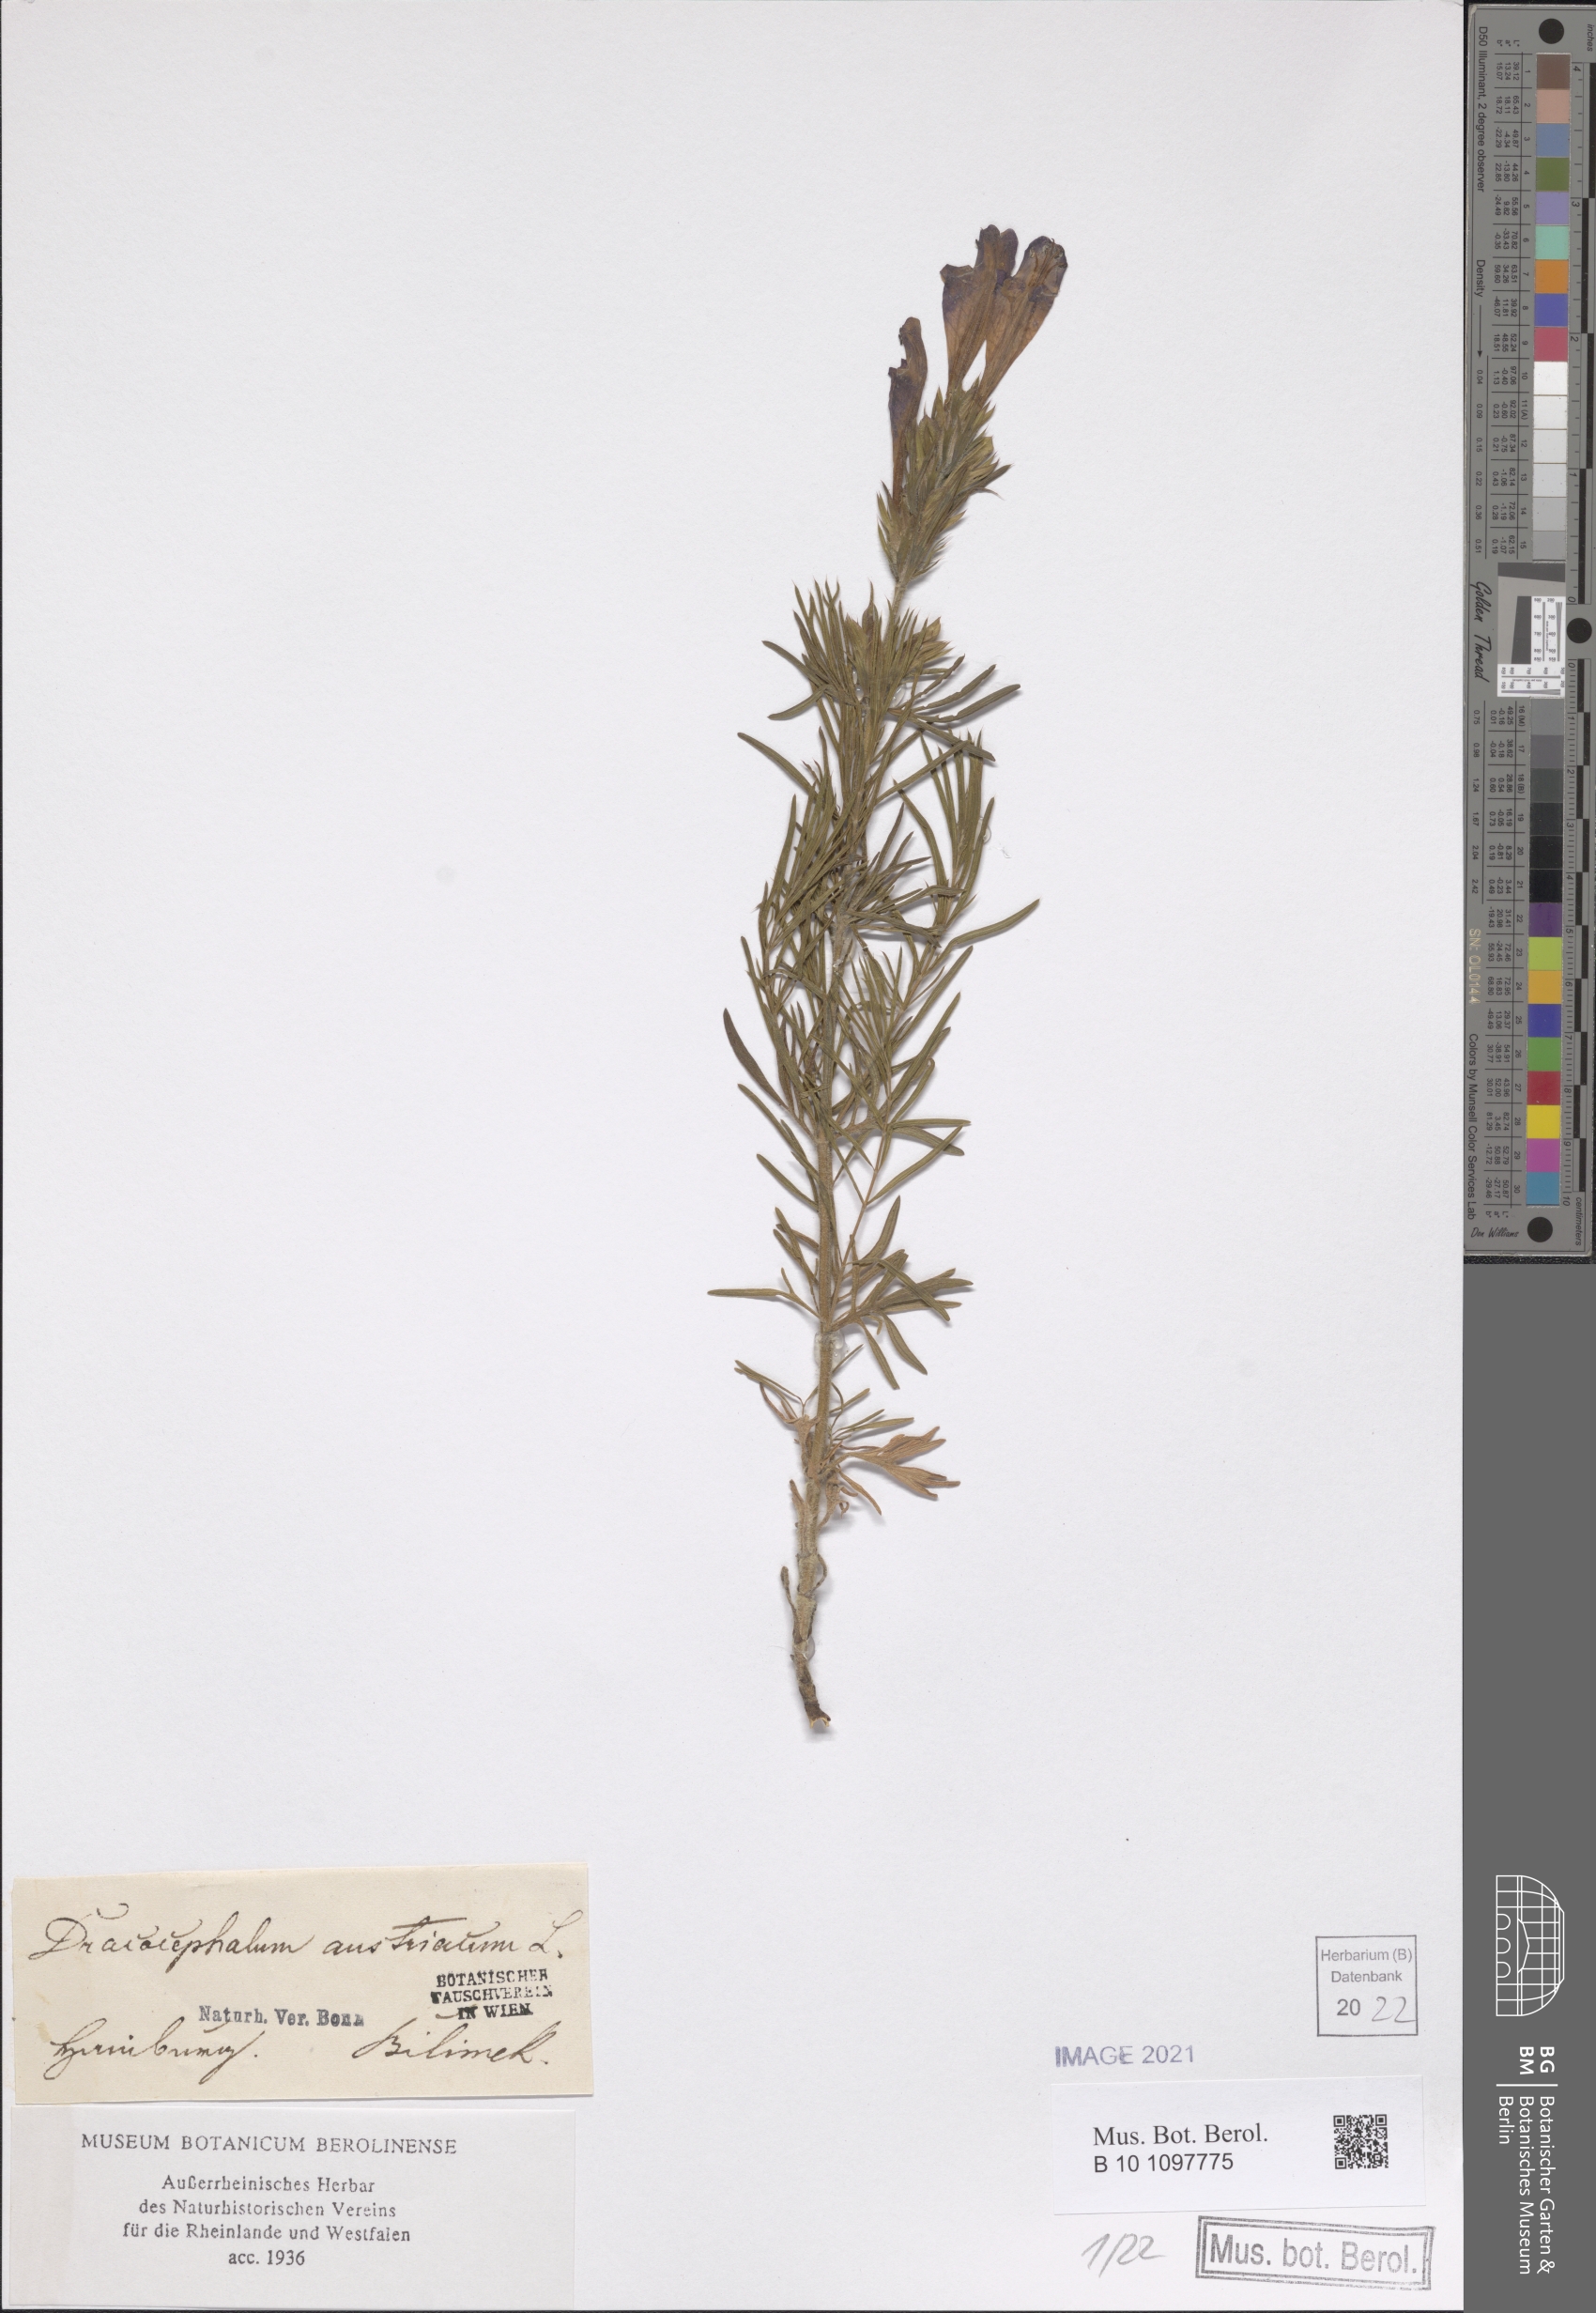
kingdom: Plantae
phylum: Tracheophyta
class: Magnoliopsida
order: Lamiales
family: Lamiaceae
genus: Dracocephalum
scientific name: Dracocephalum austriacum
